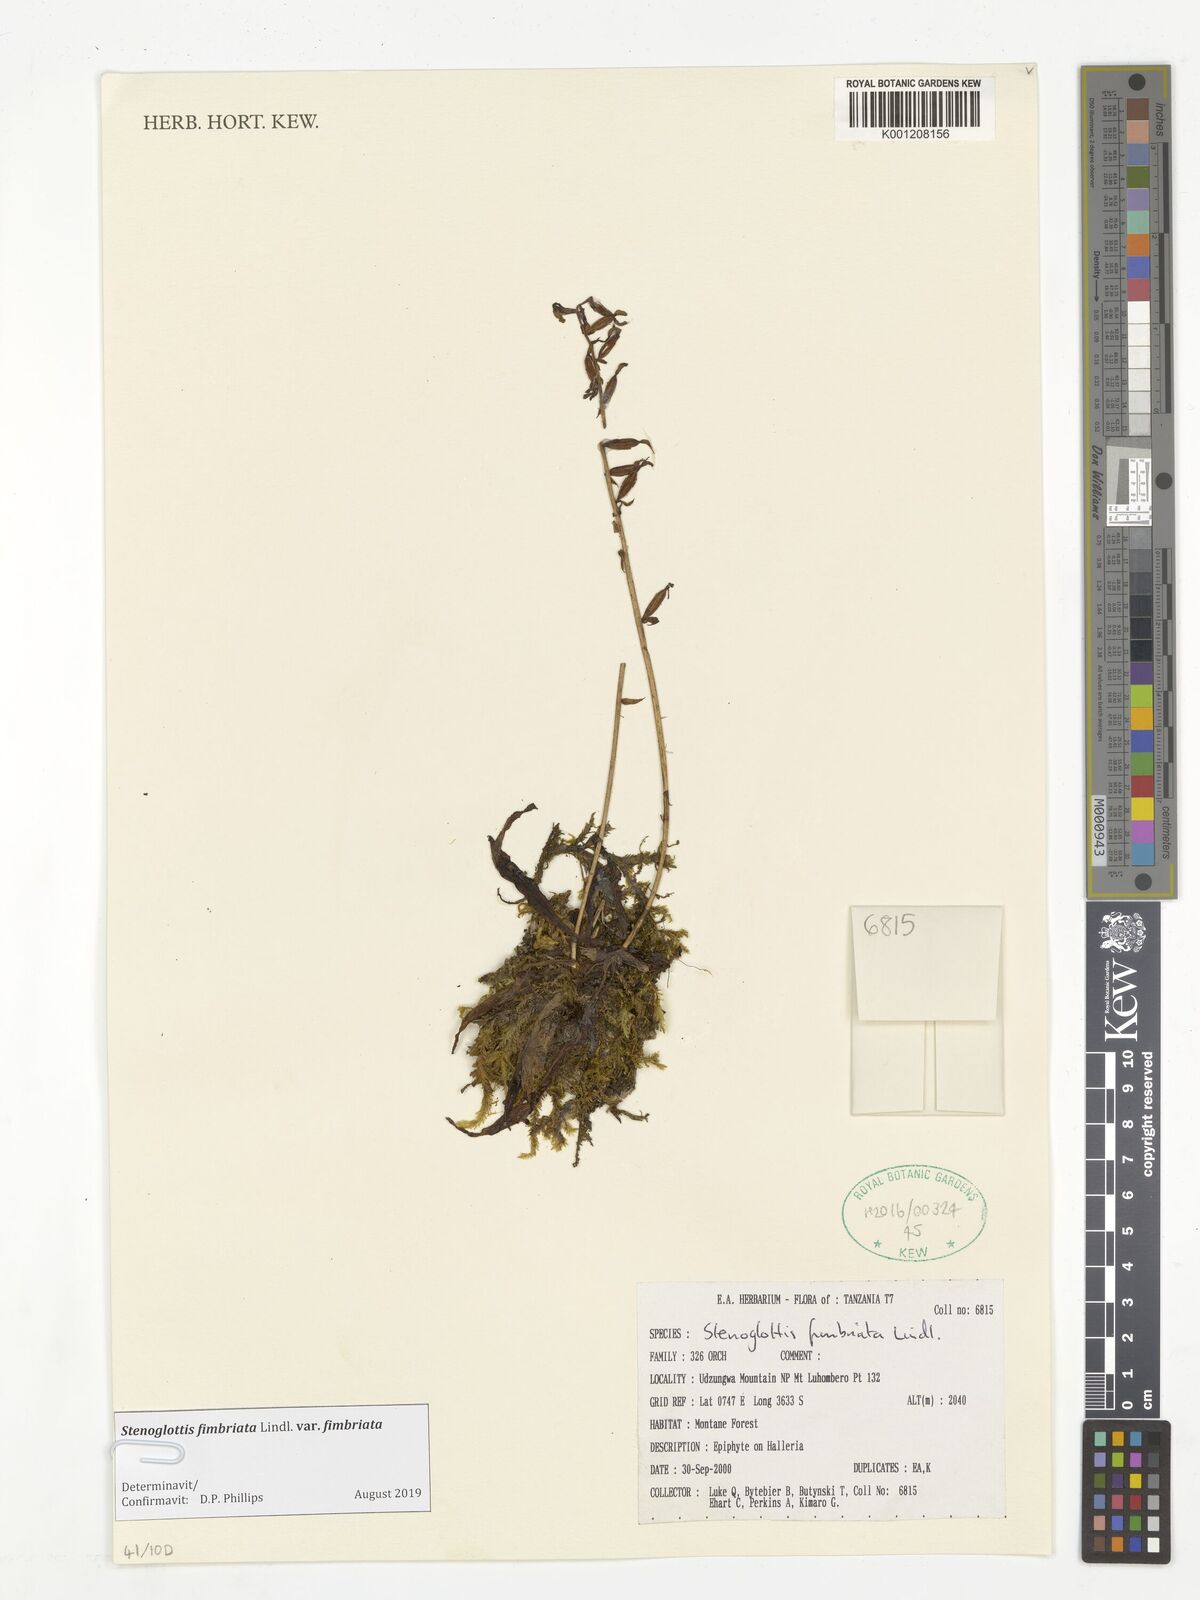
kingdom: Plantae
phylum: Tracheophyta
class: Liliopsida
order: Asparagales
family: Orchidaceae
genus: Stenoglottis
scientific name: Stenoglottis fimbriata
